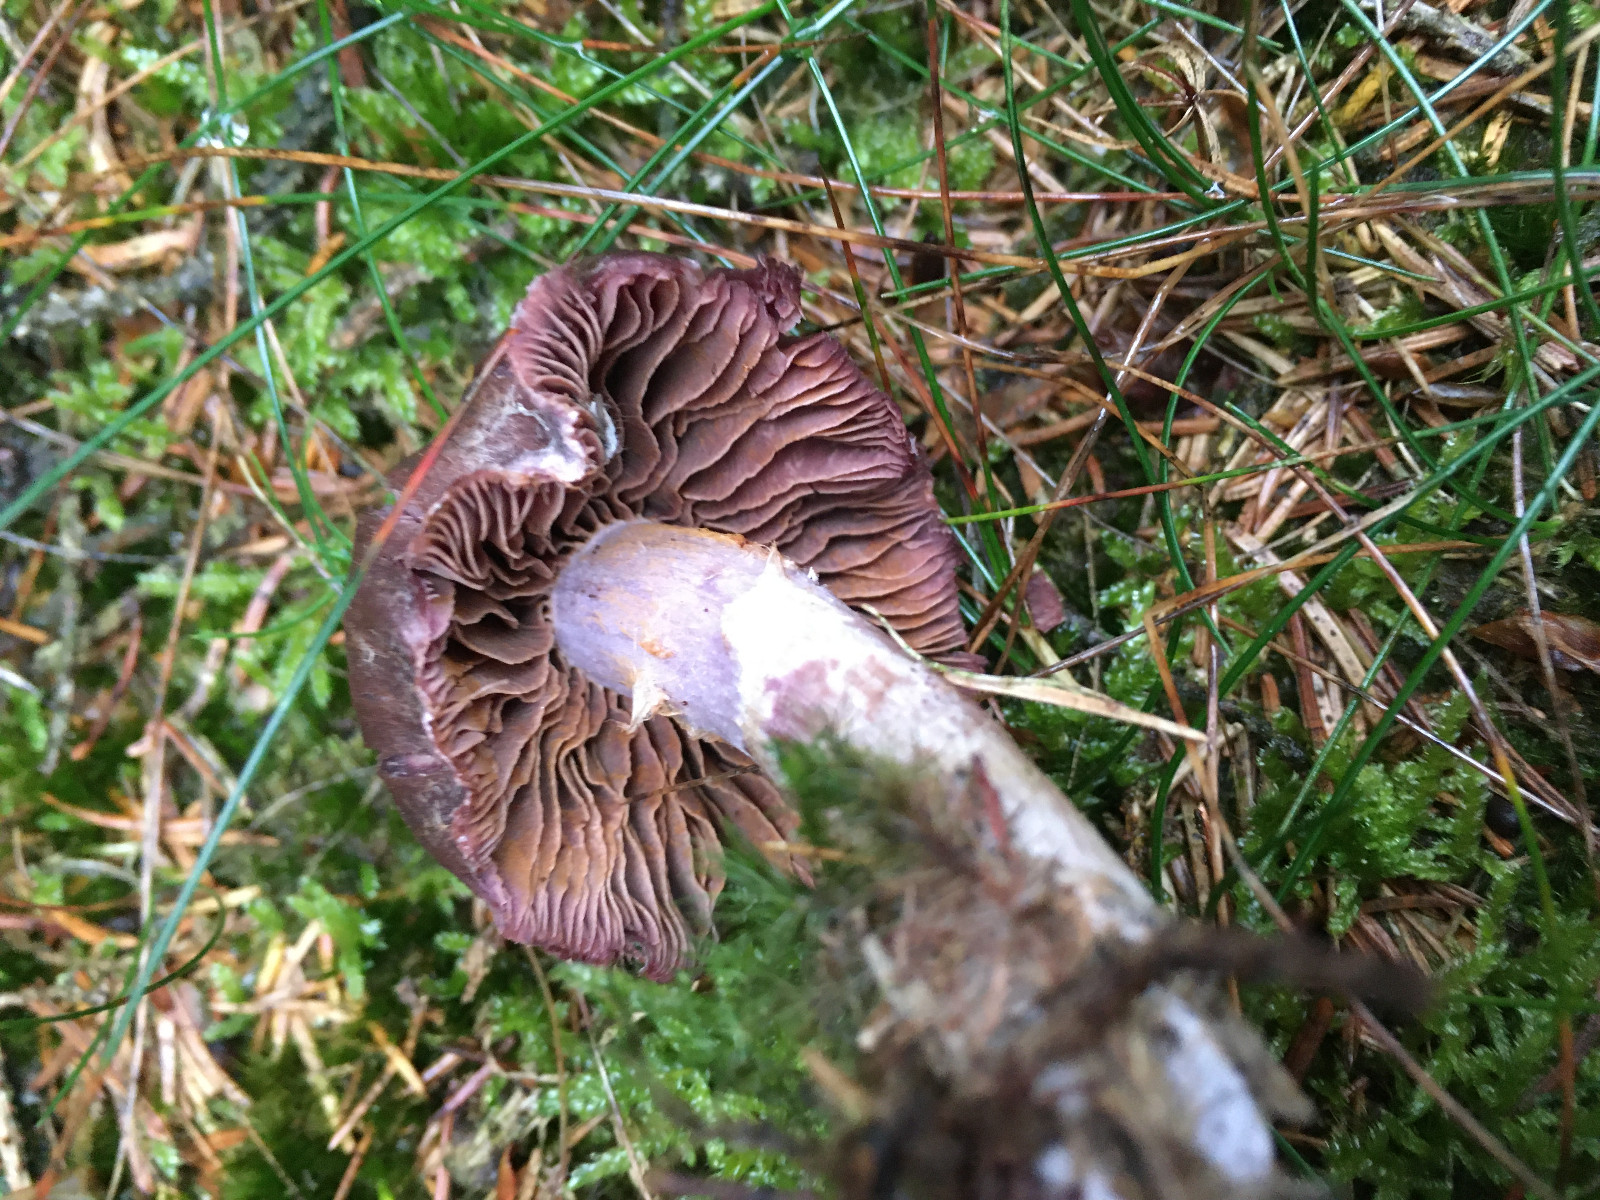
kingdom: Fungi
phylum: Basidiomycota
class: Agaricomycetes
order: Agaricales
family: Cortinariaceae
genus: Cortinarius
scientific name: Cortinarius tortuosus
